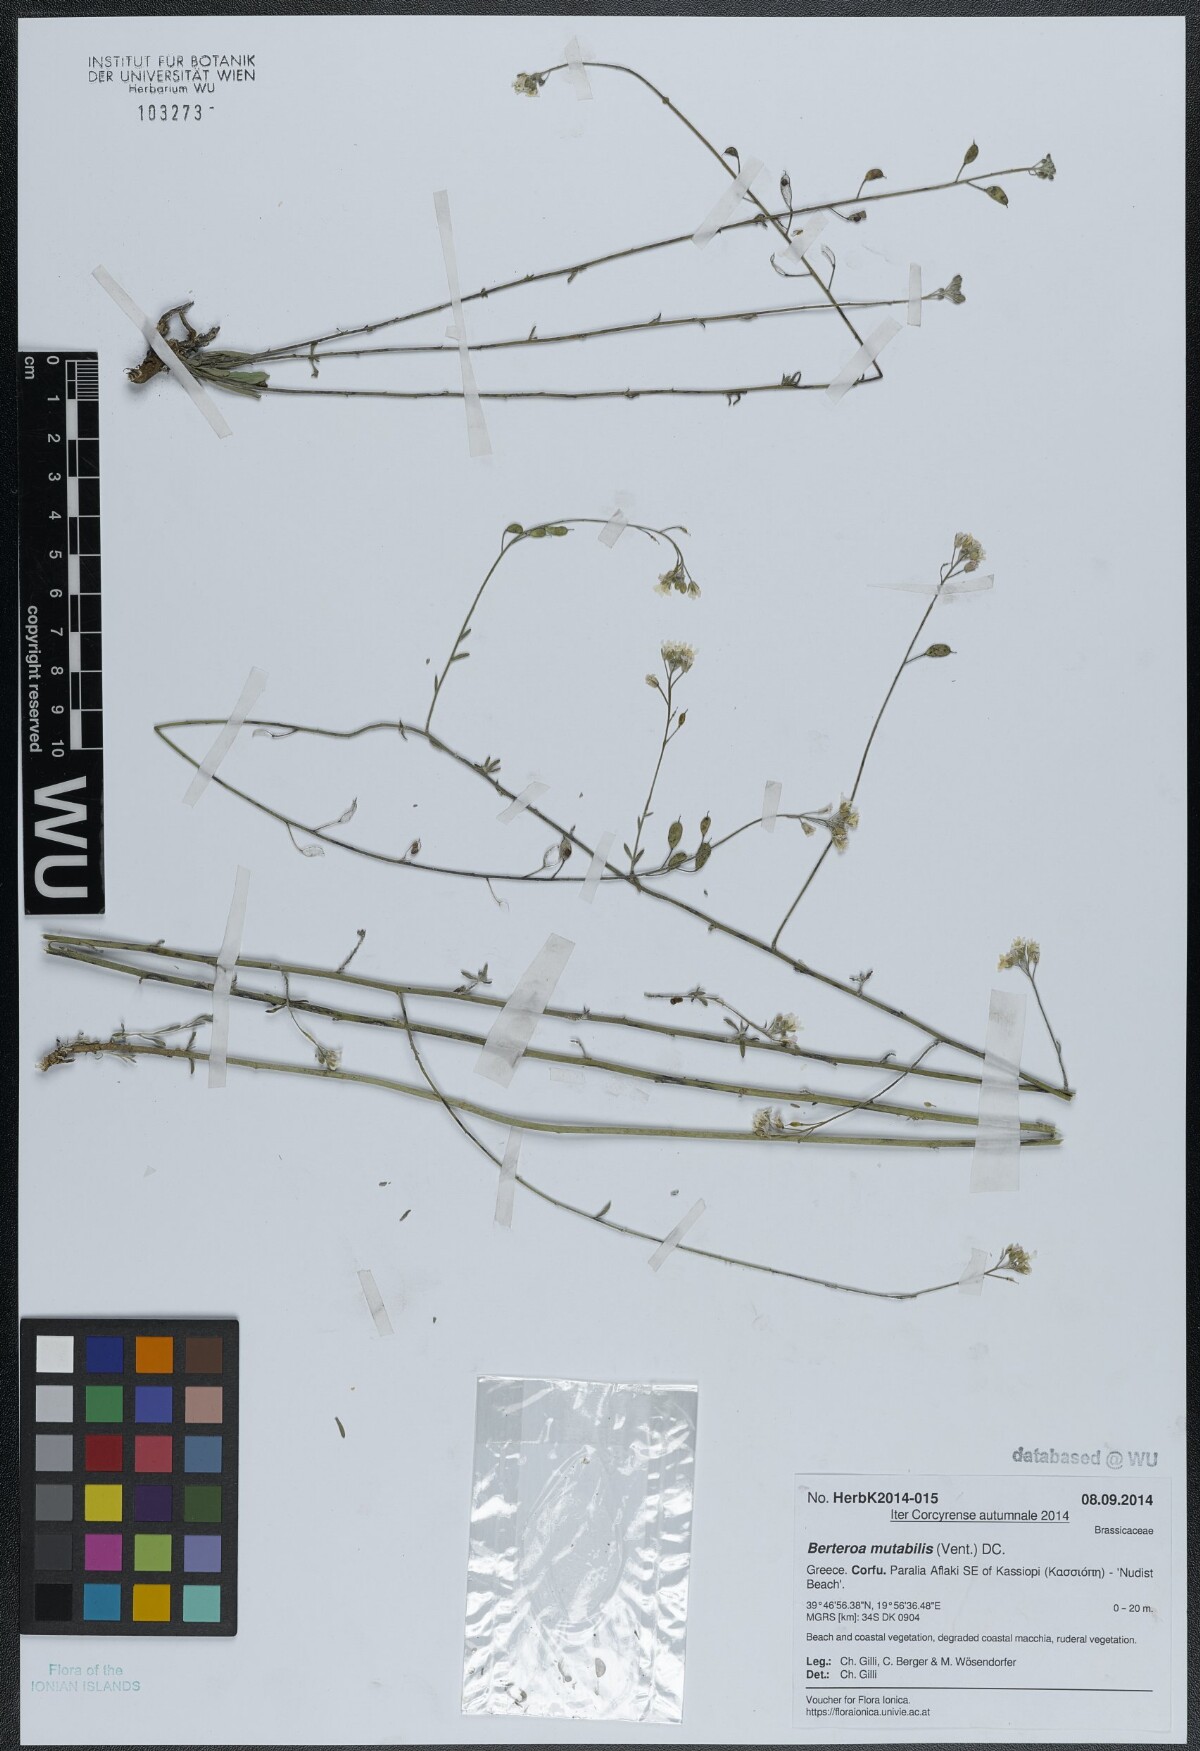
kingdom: Plantae
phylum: Tracheophyta
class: Magnoliopsida
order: Brassicales
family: Brassicaceae
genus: Berteroa
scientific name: Berteroa mutabilis
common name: Roadside false madwort
